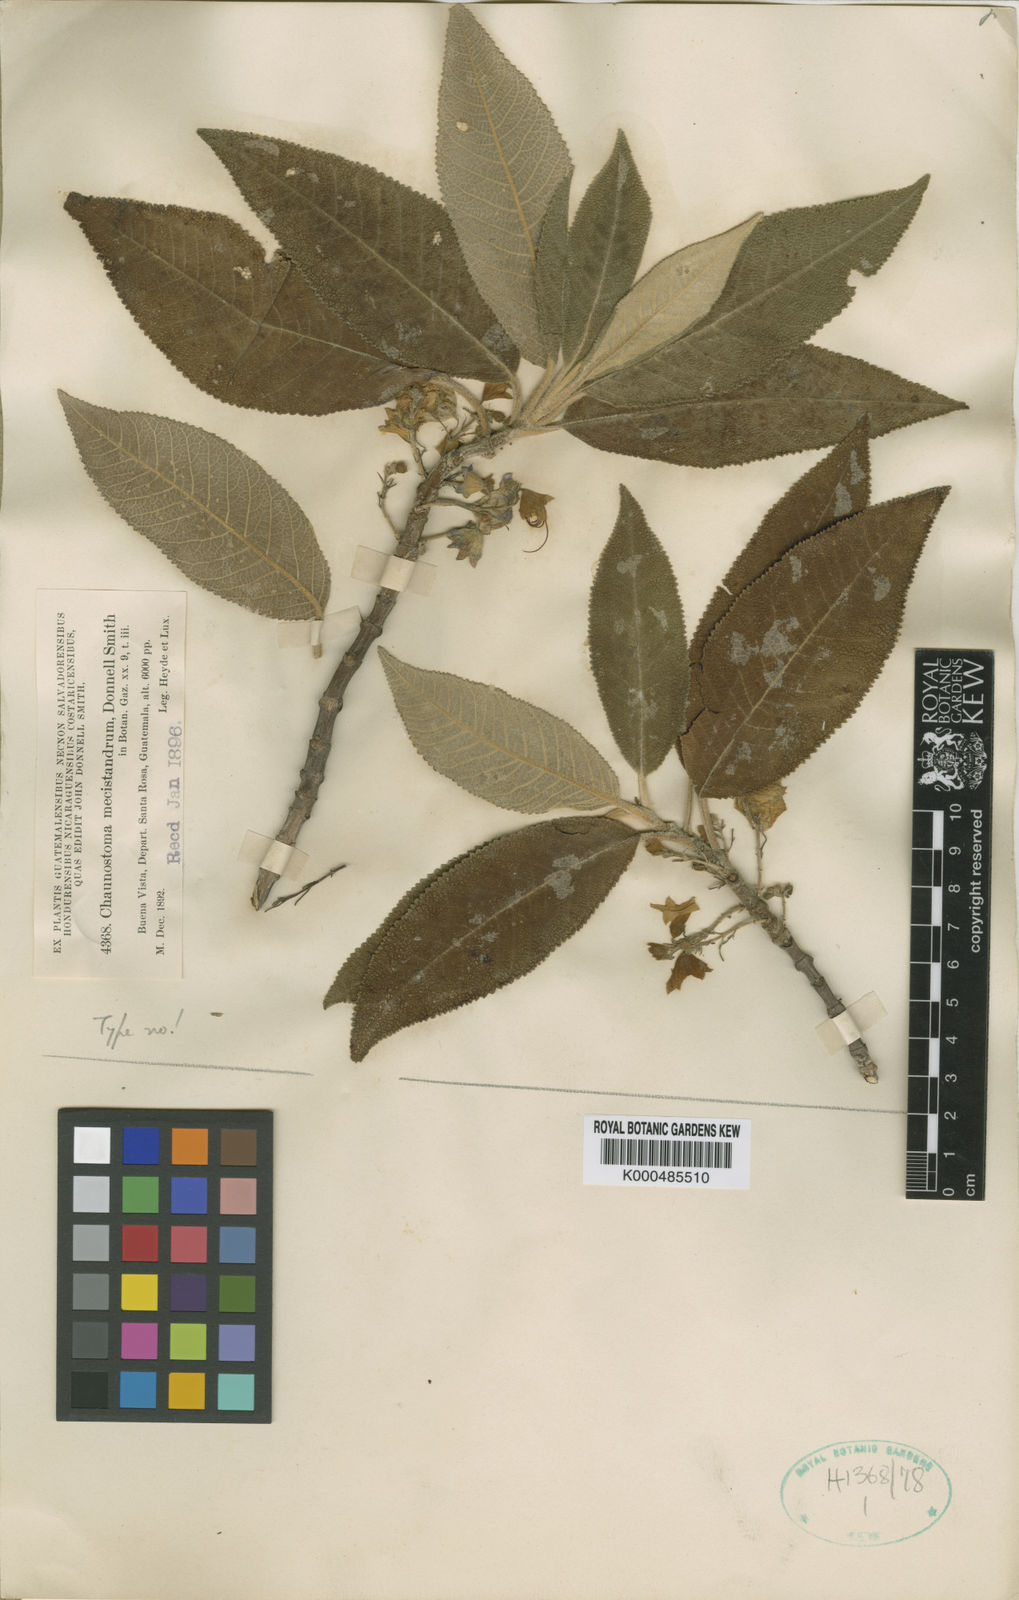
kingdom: Plantae
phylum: Tracheophyta
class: Magnoliopsida
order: Lamiales
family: Lamiaceae
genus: Lepechinia
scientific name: Lepechinia mecistandrum
